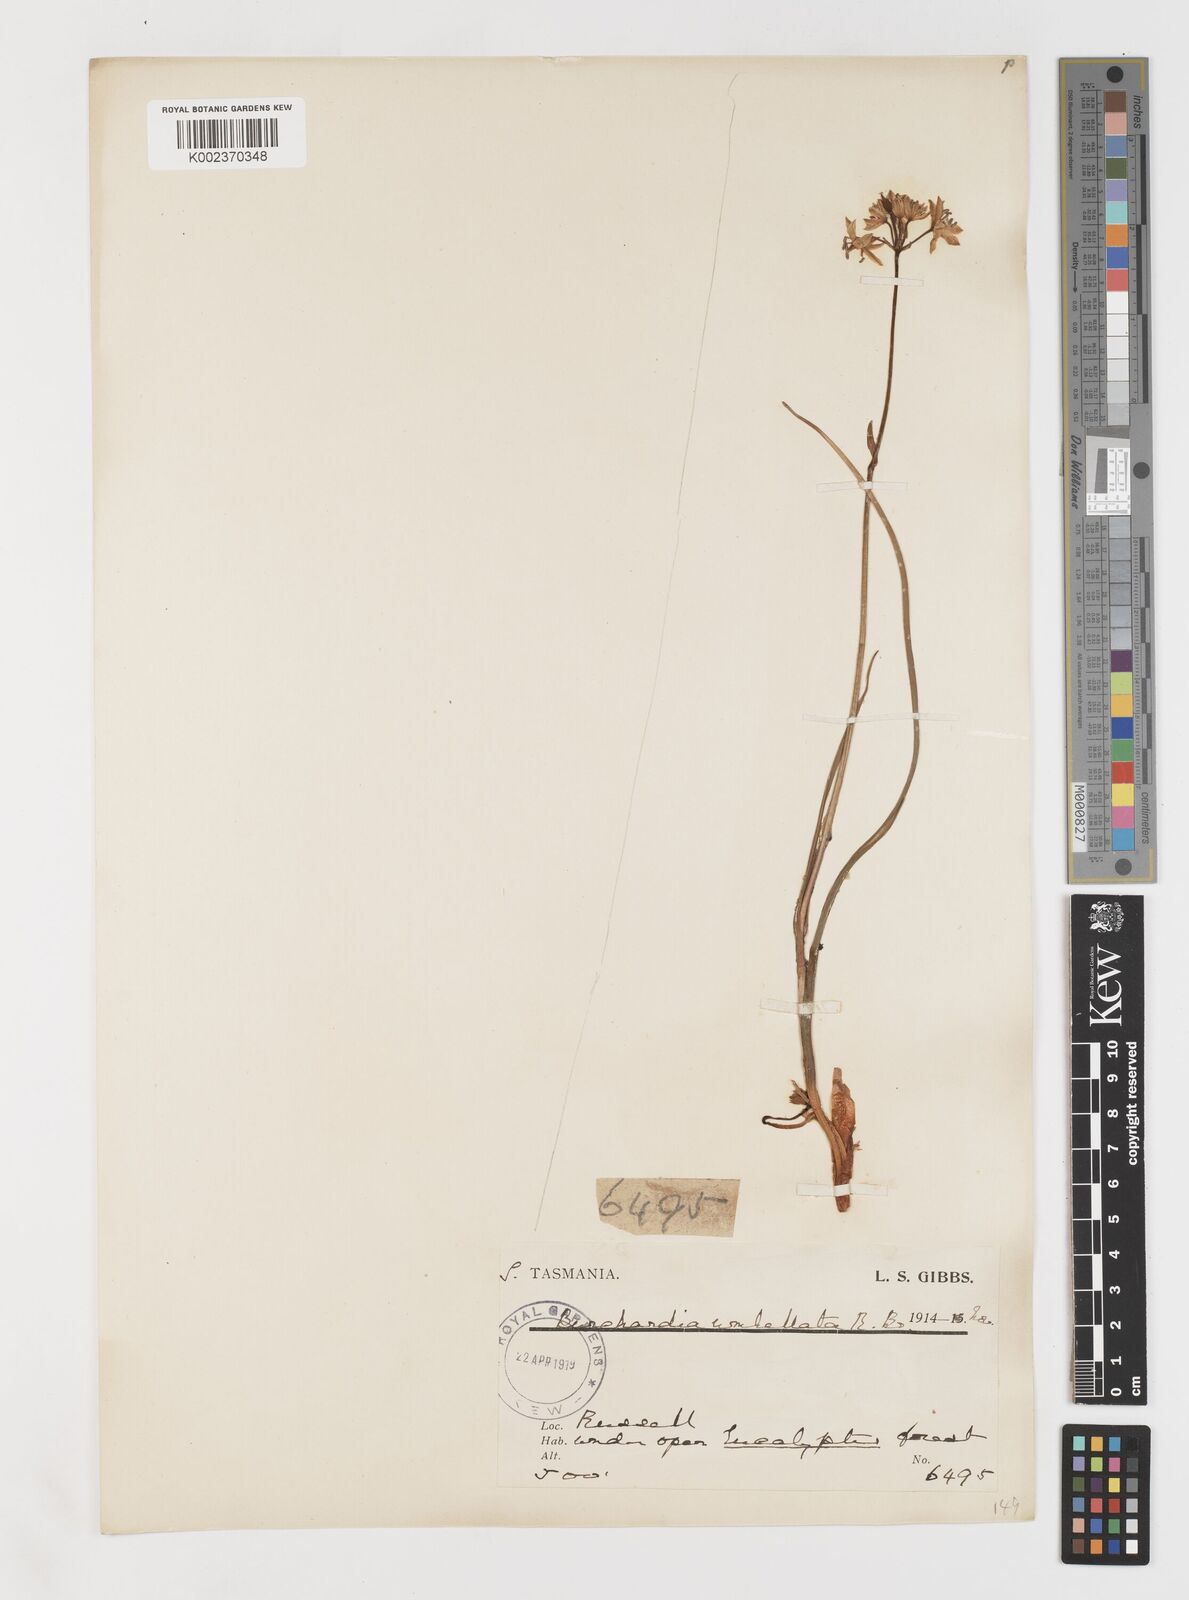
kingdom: Plantae
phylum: Tracheophyta
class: Liliopsida
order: Liliales
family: Colchicaceae
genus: Burchardia
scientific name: Burchardia umbellata
